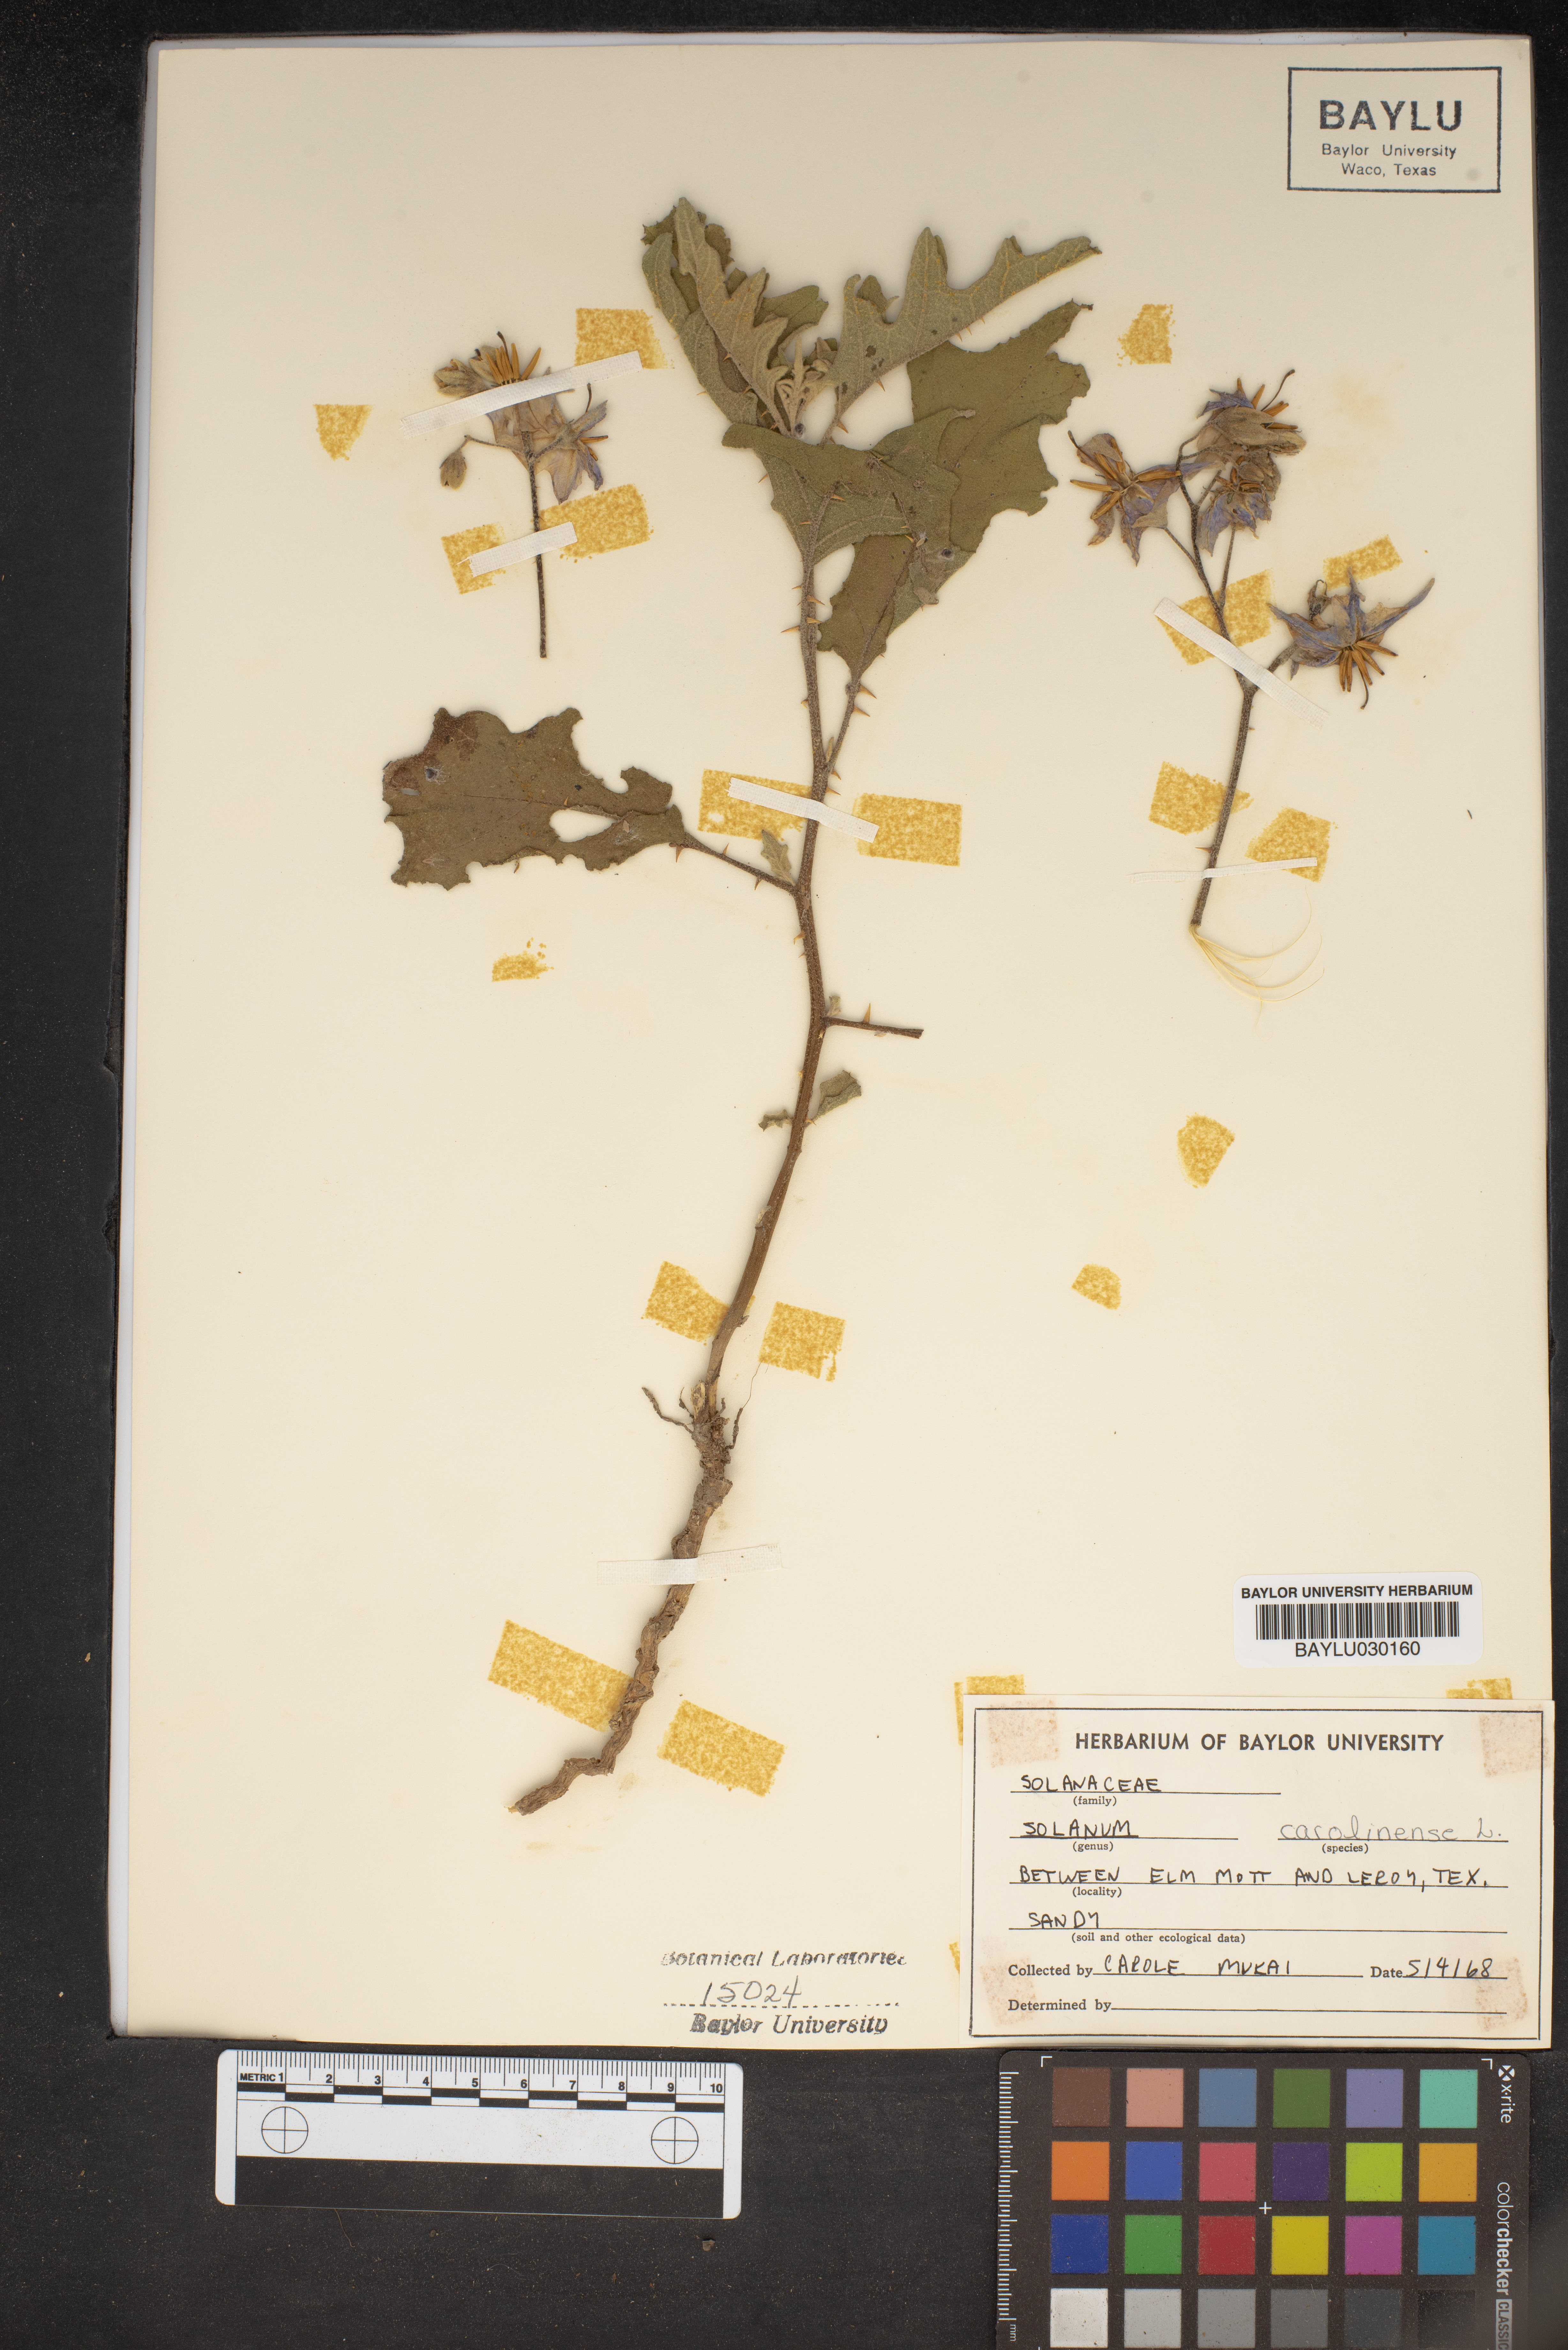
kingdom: Plantae
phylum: Tracheophyta
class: Magnoliopsida
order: Solanales
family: Solanaceae
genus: Solanum
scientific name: Solanum carolinense
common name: Horse-nettle
